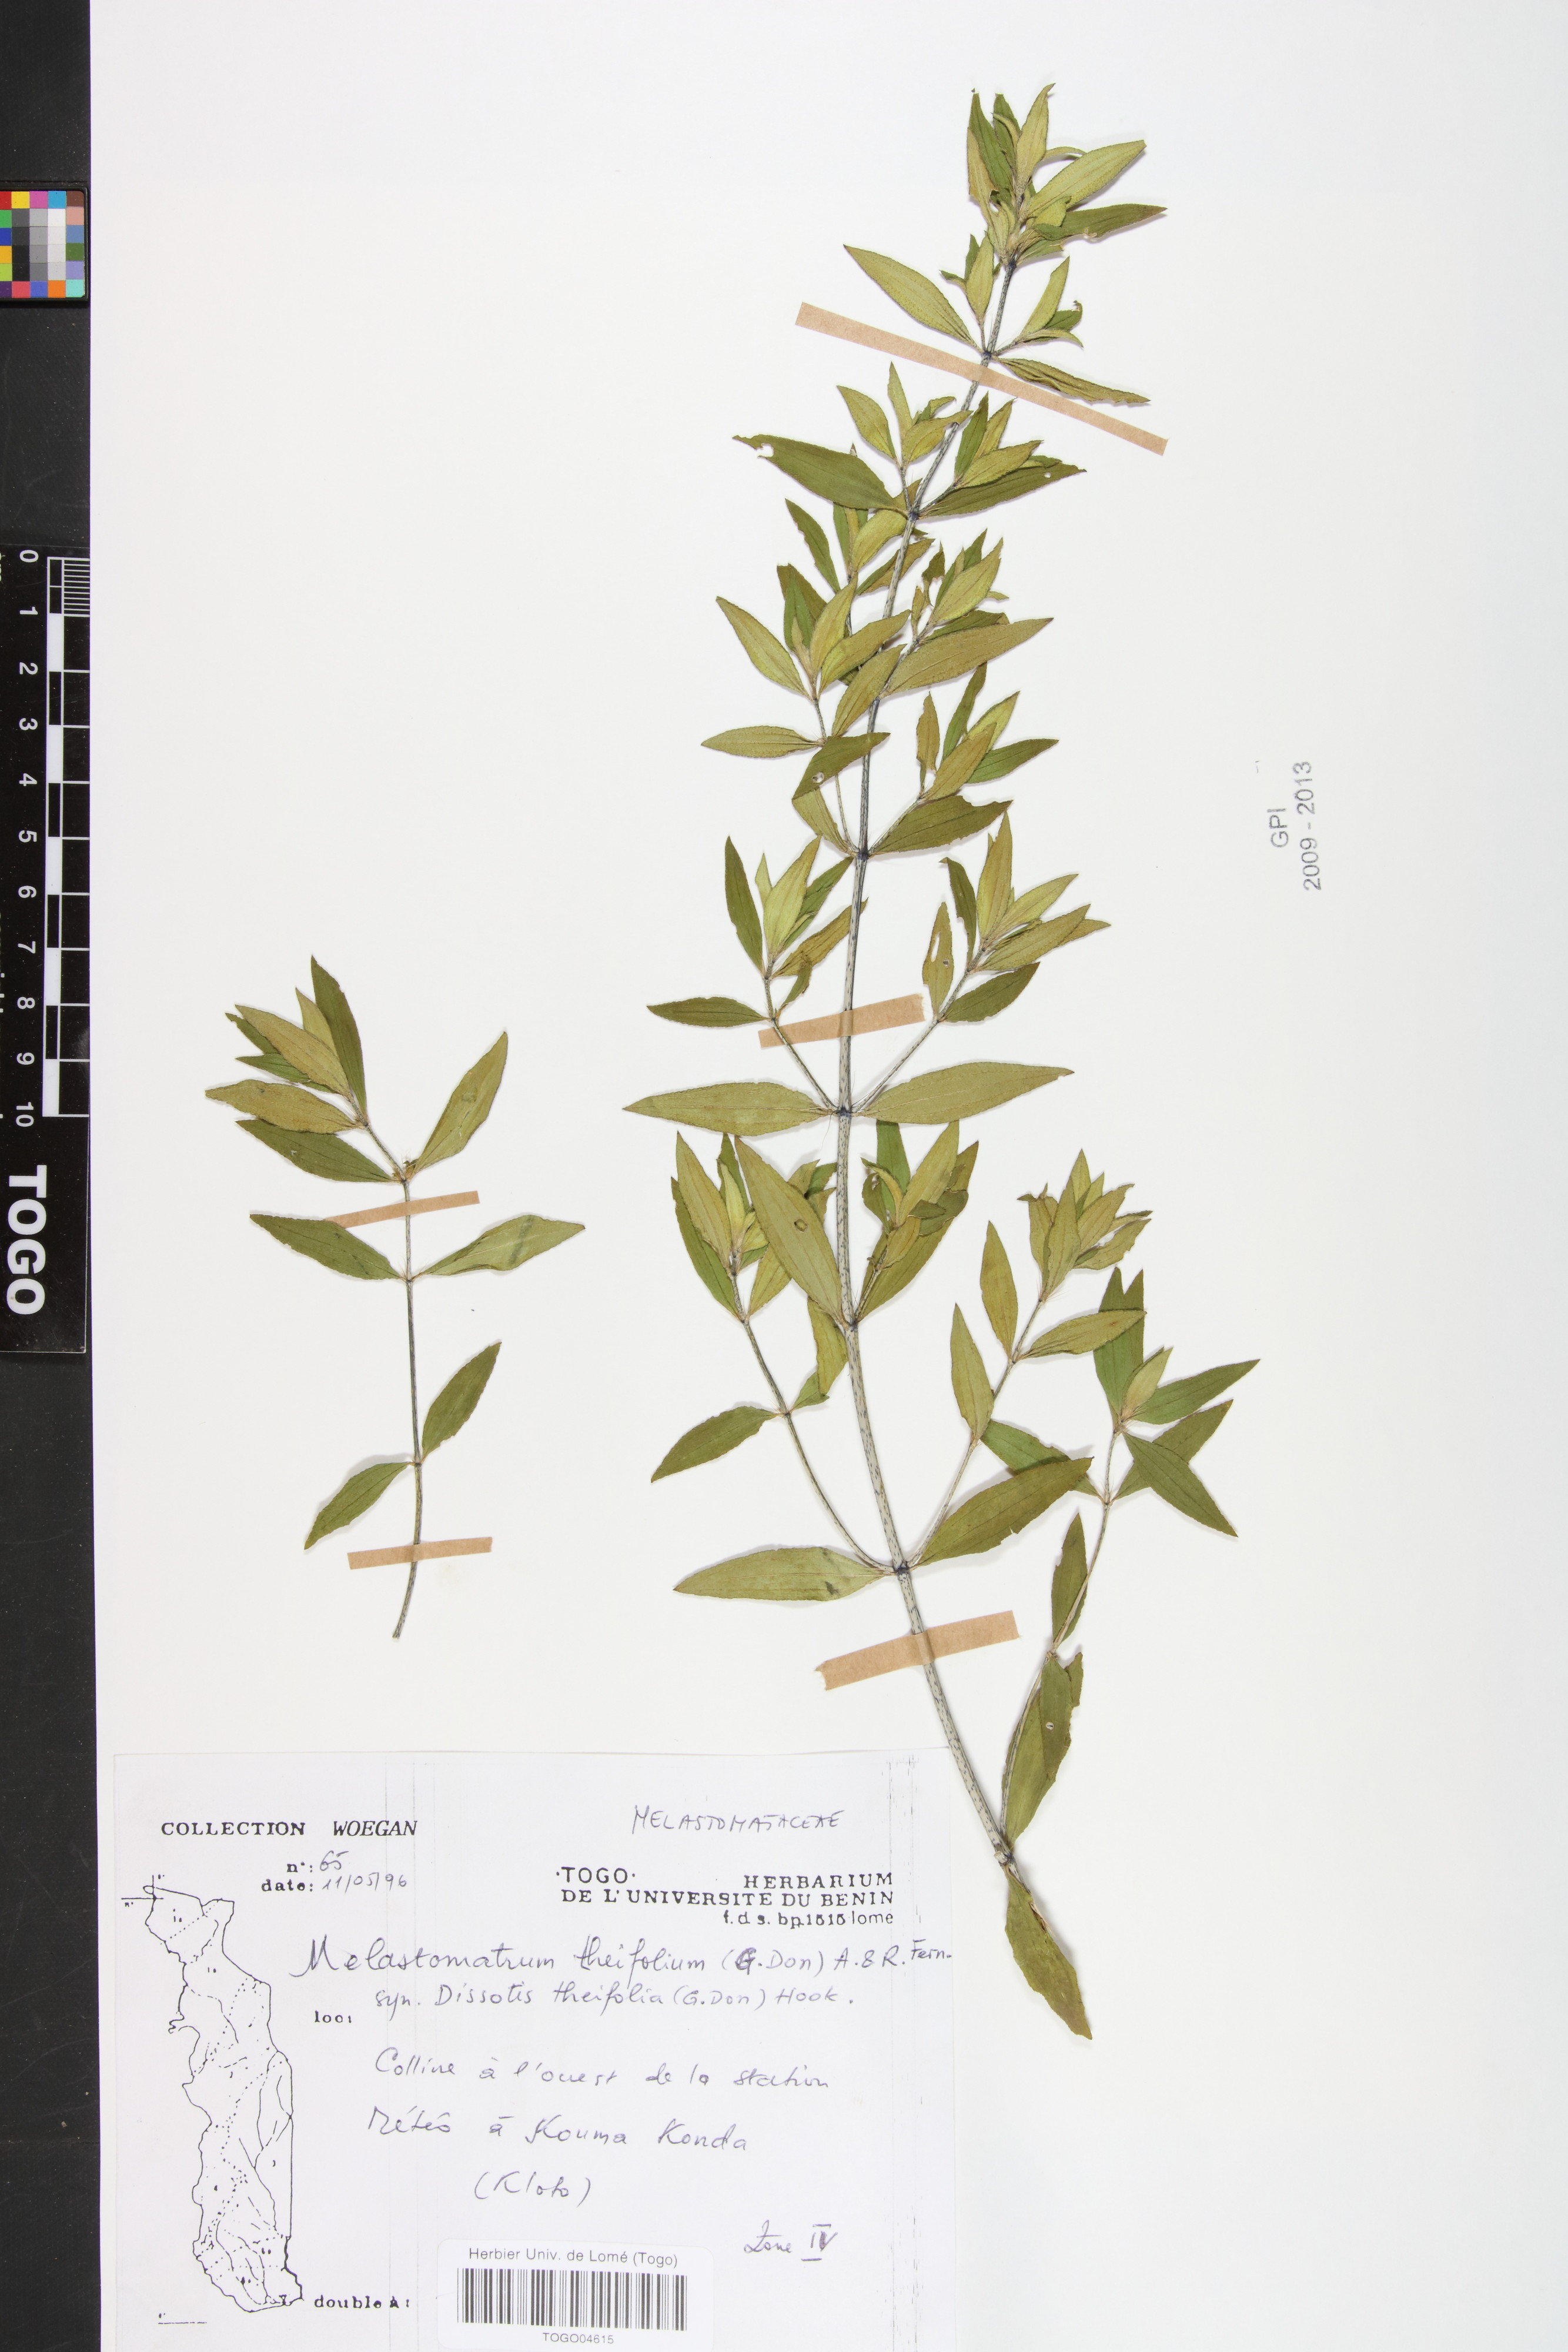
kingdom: Plantae
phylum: Tracheophyta
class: Magnoliopsida
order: Myrtales
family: Melastomataceae
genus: Melastomastrum
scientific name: Melastomastrum theifolium
